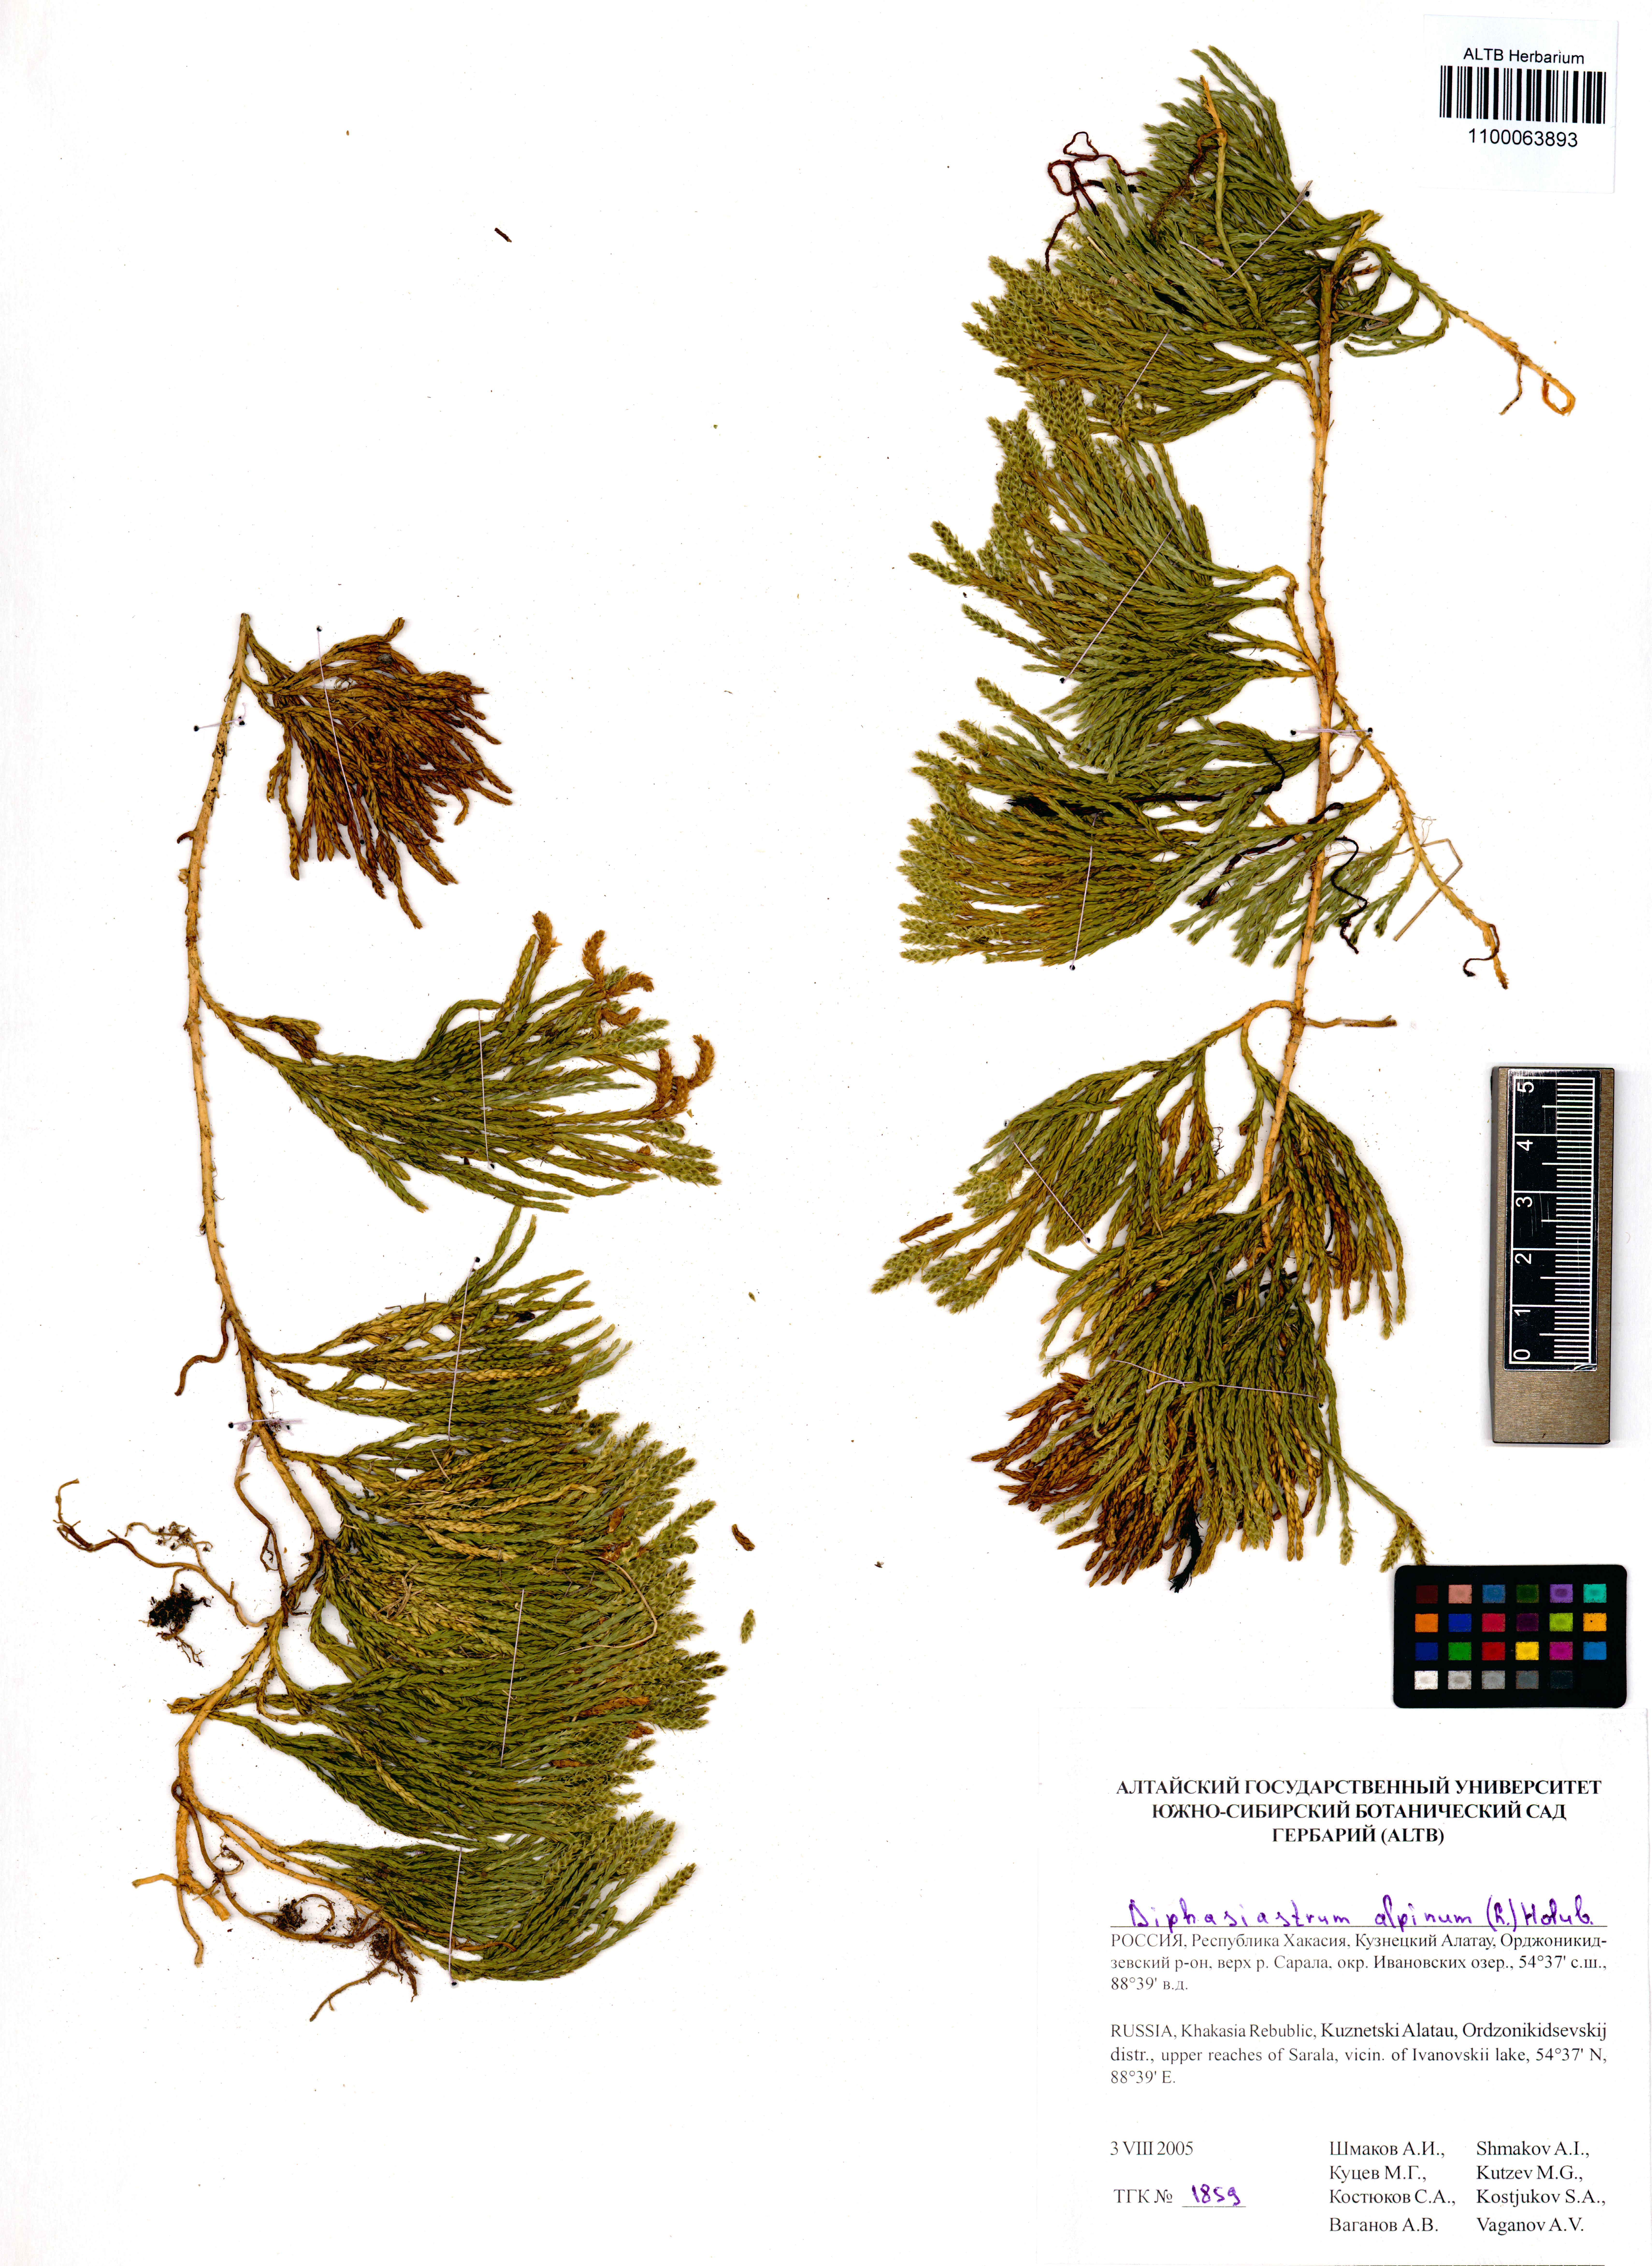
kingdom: Plantae
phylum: Tracheophyta
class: Lycopodiopsida
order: Lycopodiales
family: Lycopodiaceae
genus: Diphasiastrum
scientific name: Diphasiastrum alpinum
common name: Alpine clubmoss
